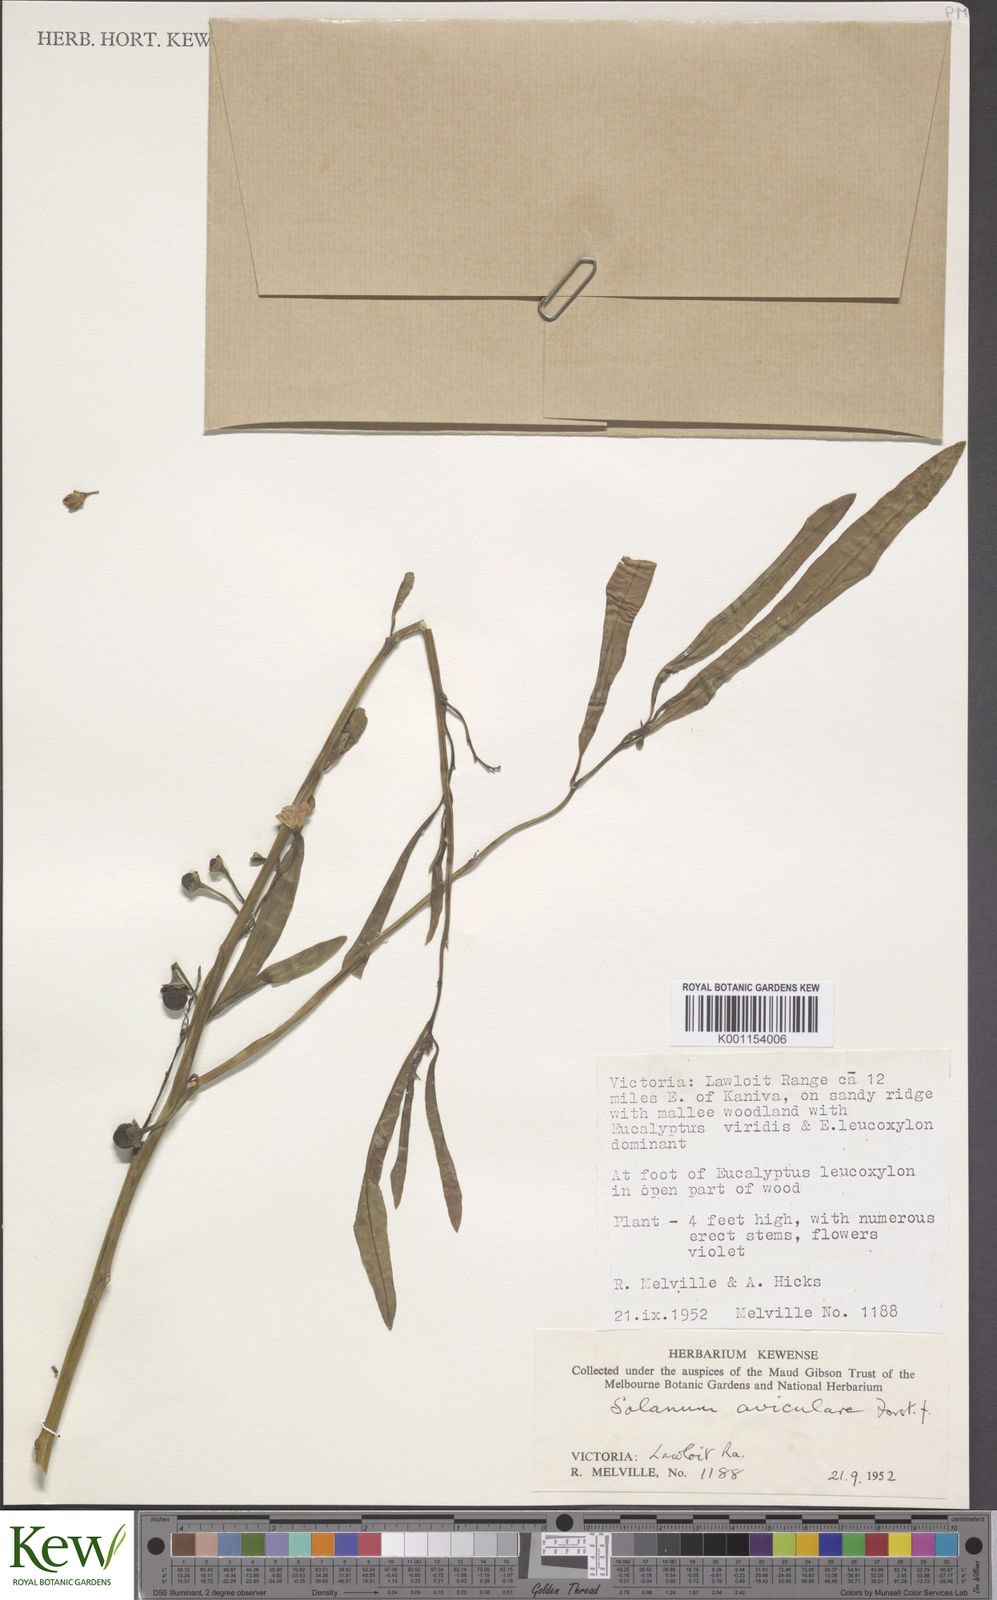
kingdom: Plantae
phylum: Tracheophyta
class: Magnoliopsida
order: Solanales
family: Solanaceae
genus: Solanum
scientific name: Solanum aviculare
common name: New zealand nightshade
